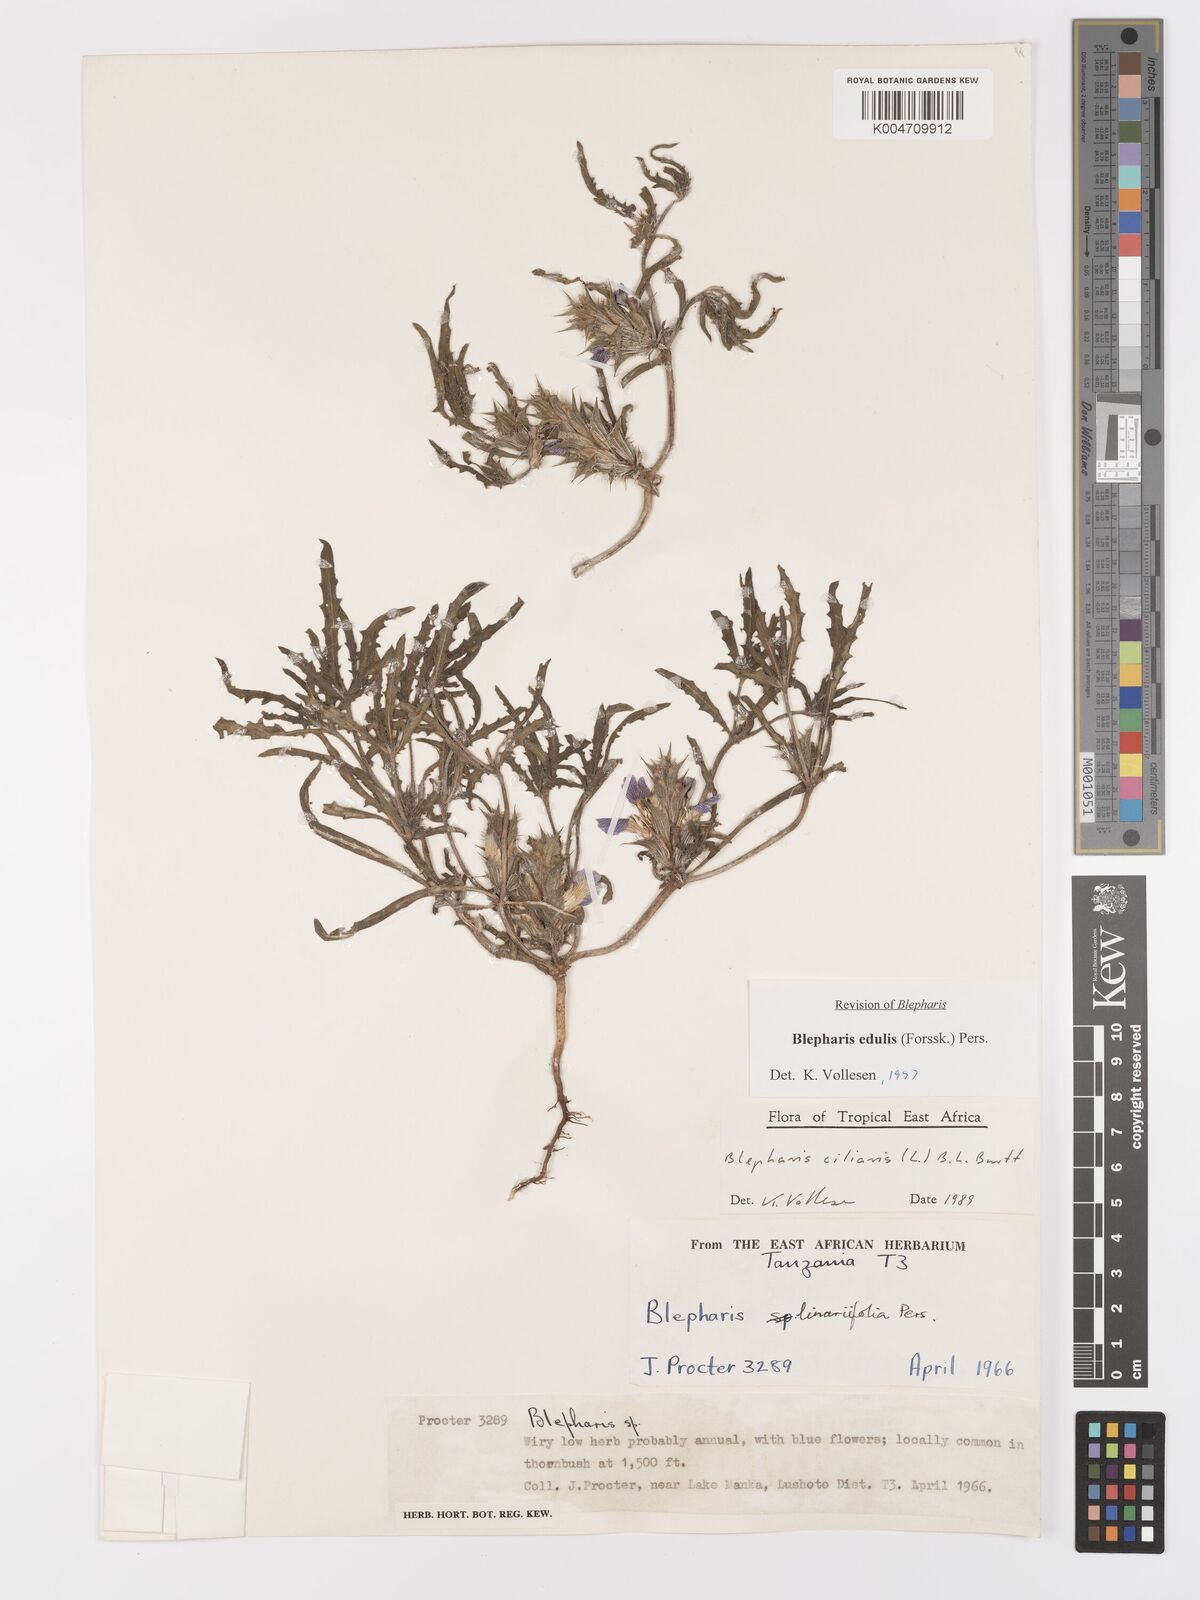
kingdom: Plantae
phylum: Tracheophyta
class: Magnoliopsida
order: Lamiales
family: Acanthaceae
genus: Blepharis
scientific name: Blepharis edulis
